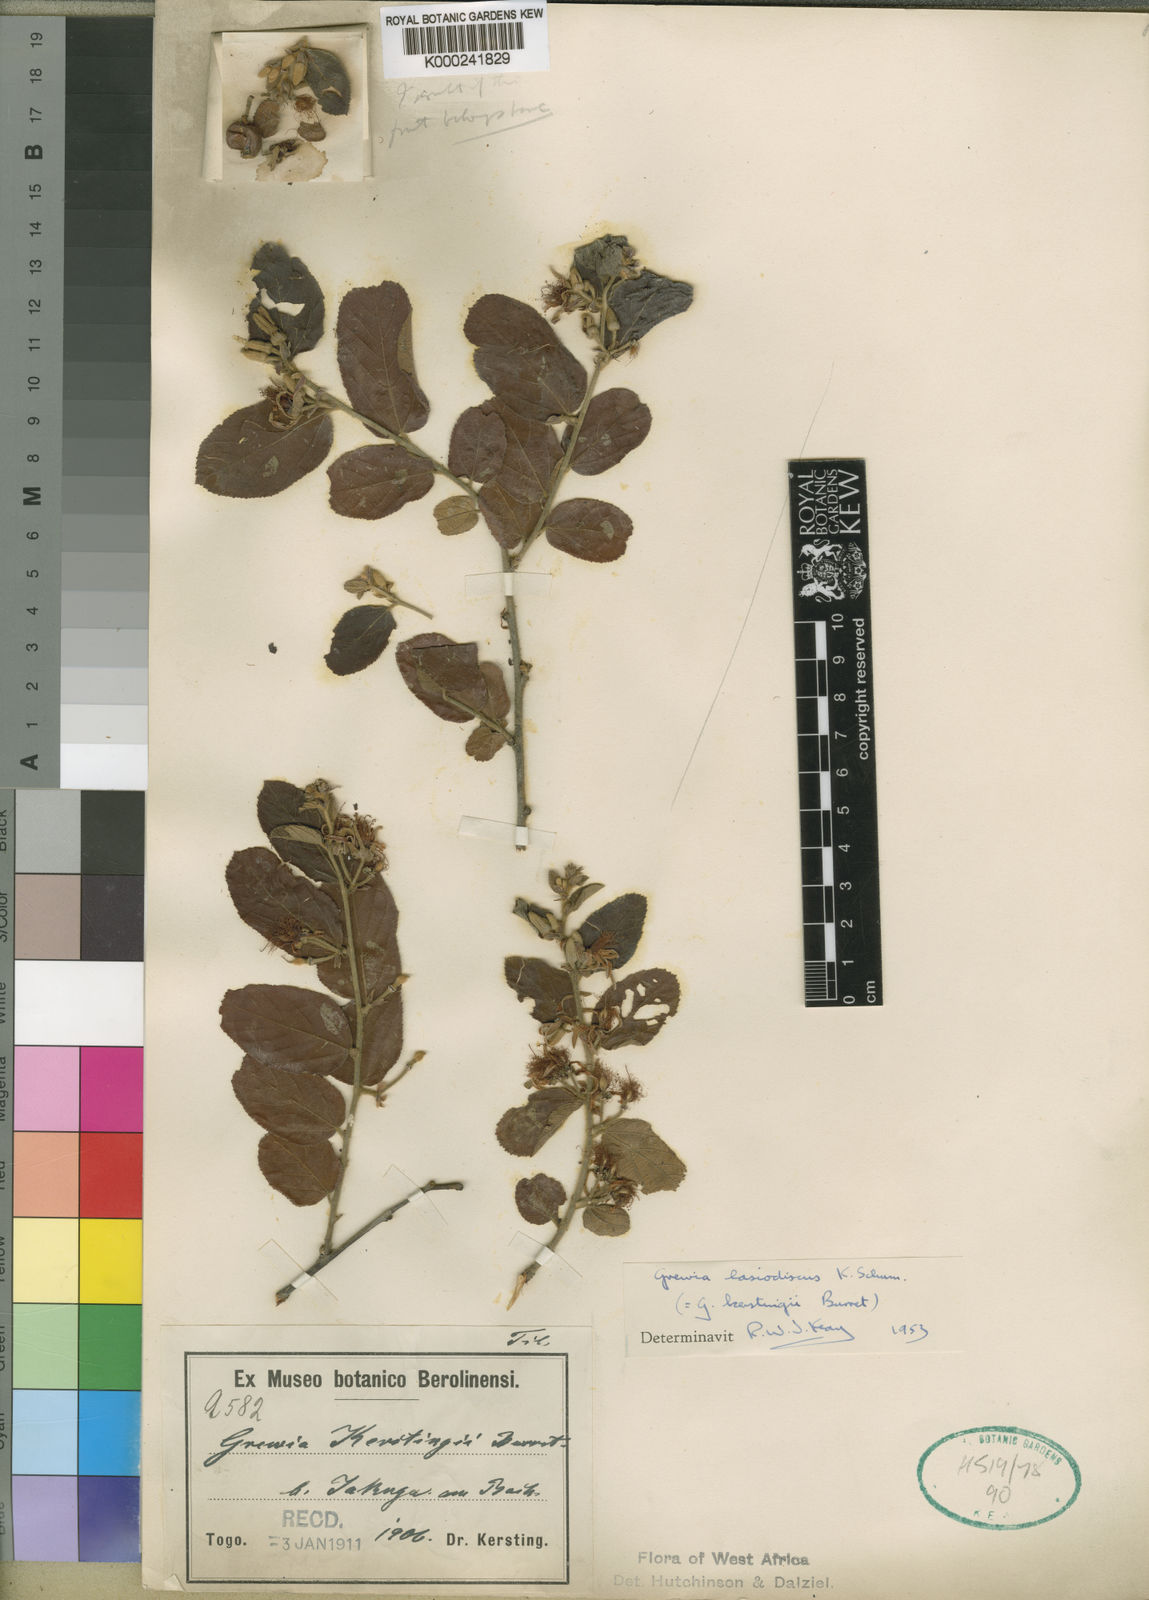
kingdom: Plantae
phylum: Tracheophyta
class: Magnoliopsida
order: Malvales
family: Malvaceae
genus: Grewia
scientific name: Grewia lasiodiscus
